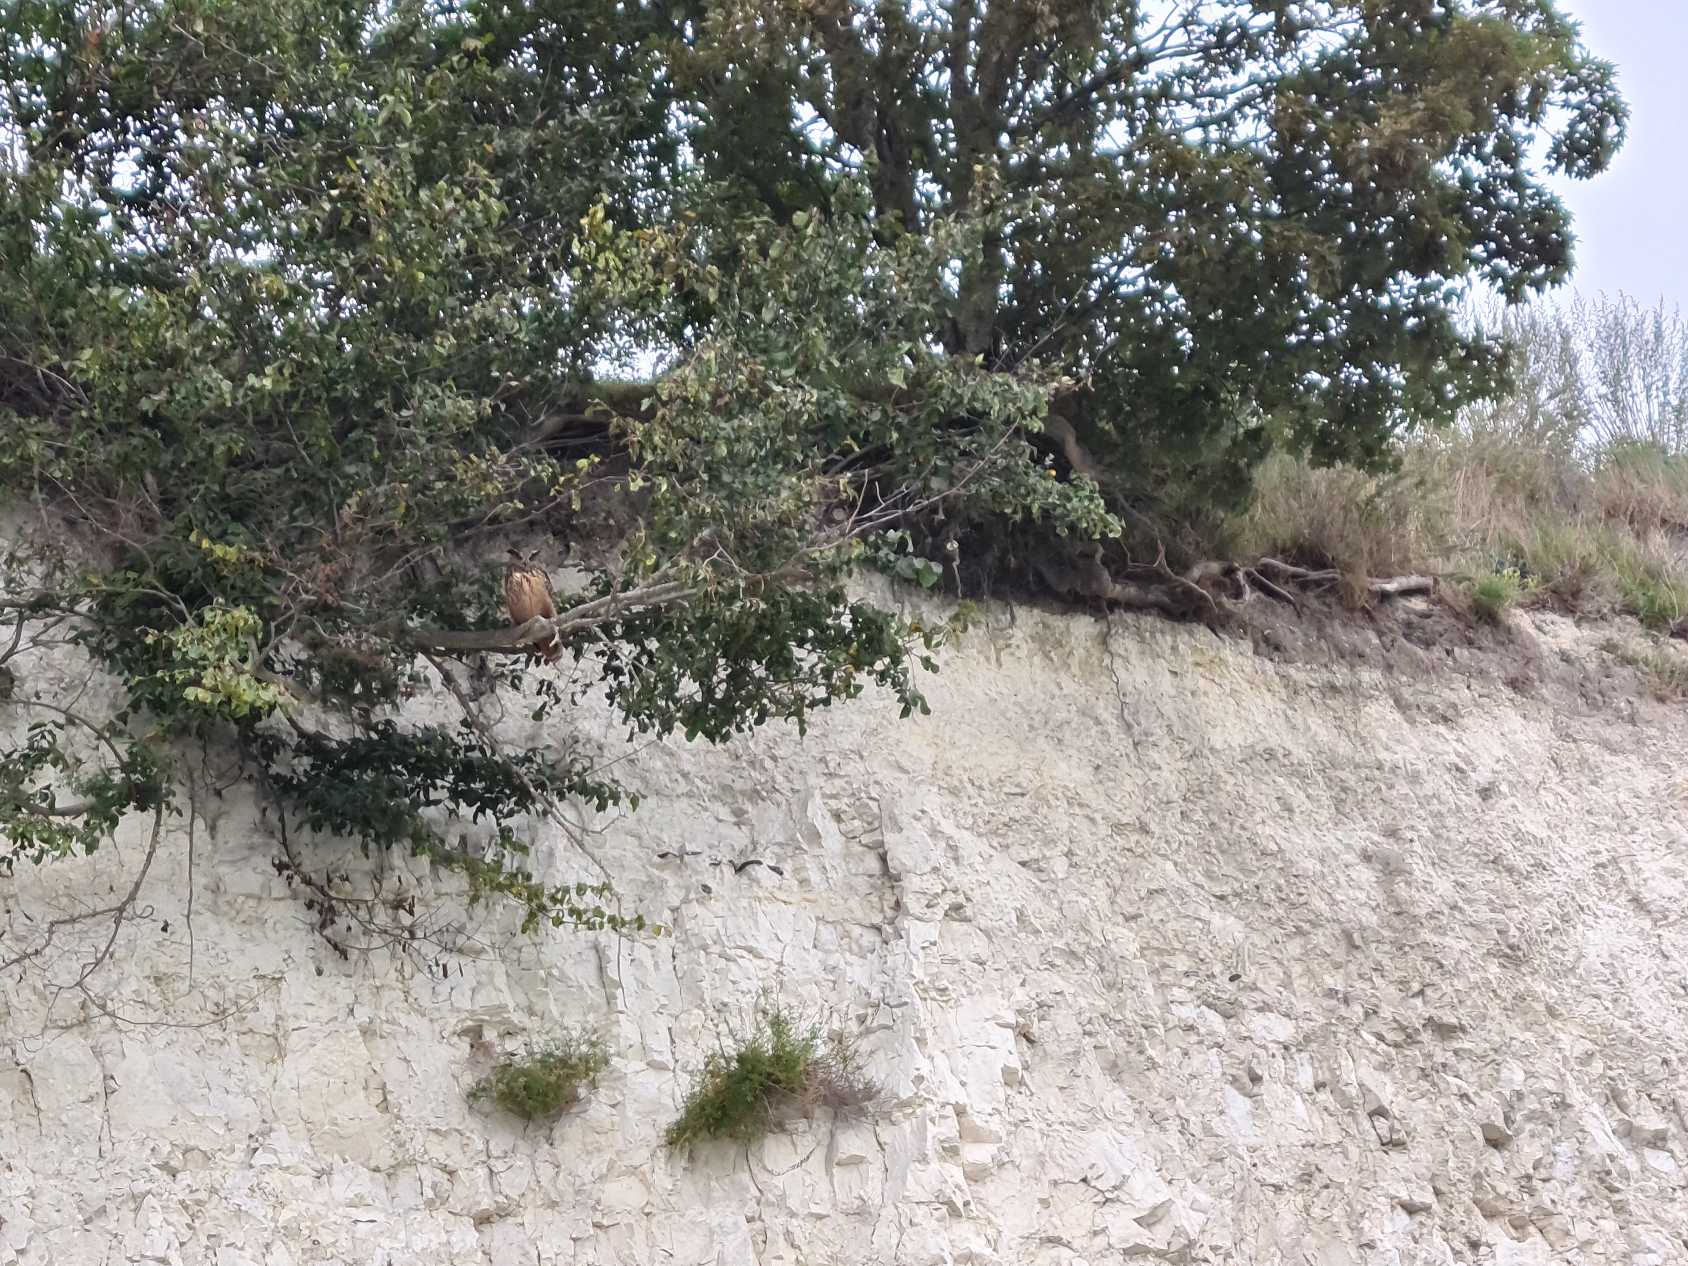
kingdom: Animalia
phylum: Chordata
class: Aves
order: Strigiformes
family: Strigidae
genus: Bubo
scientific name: Bubo bubo
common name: Stor hornugle
